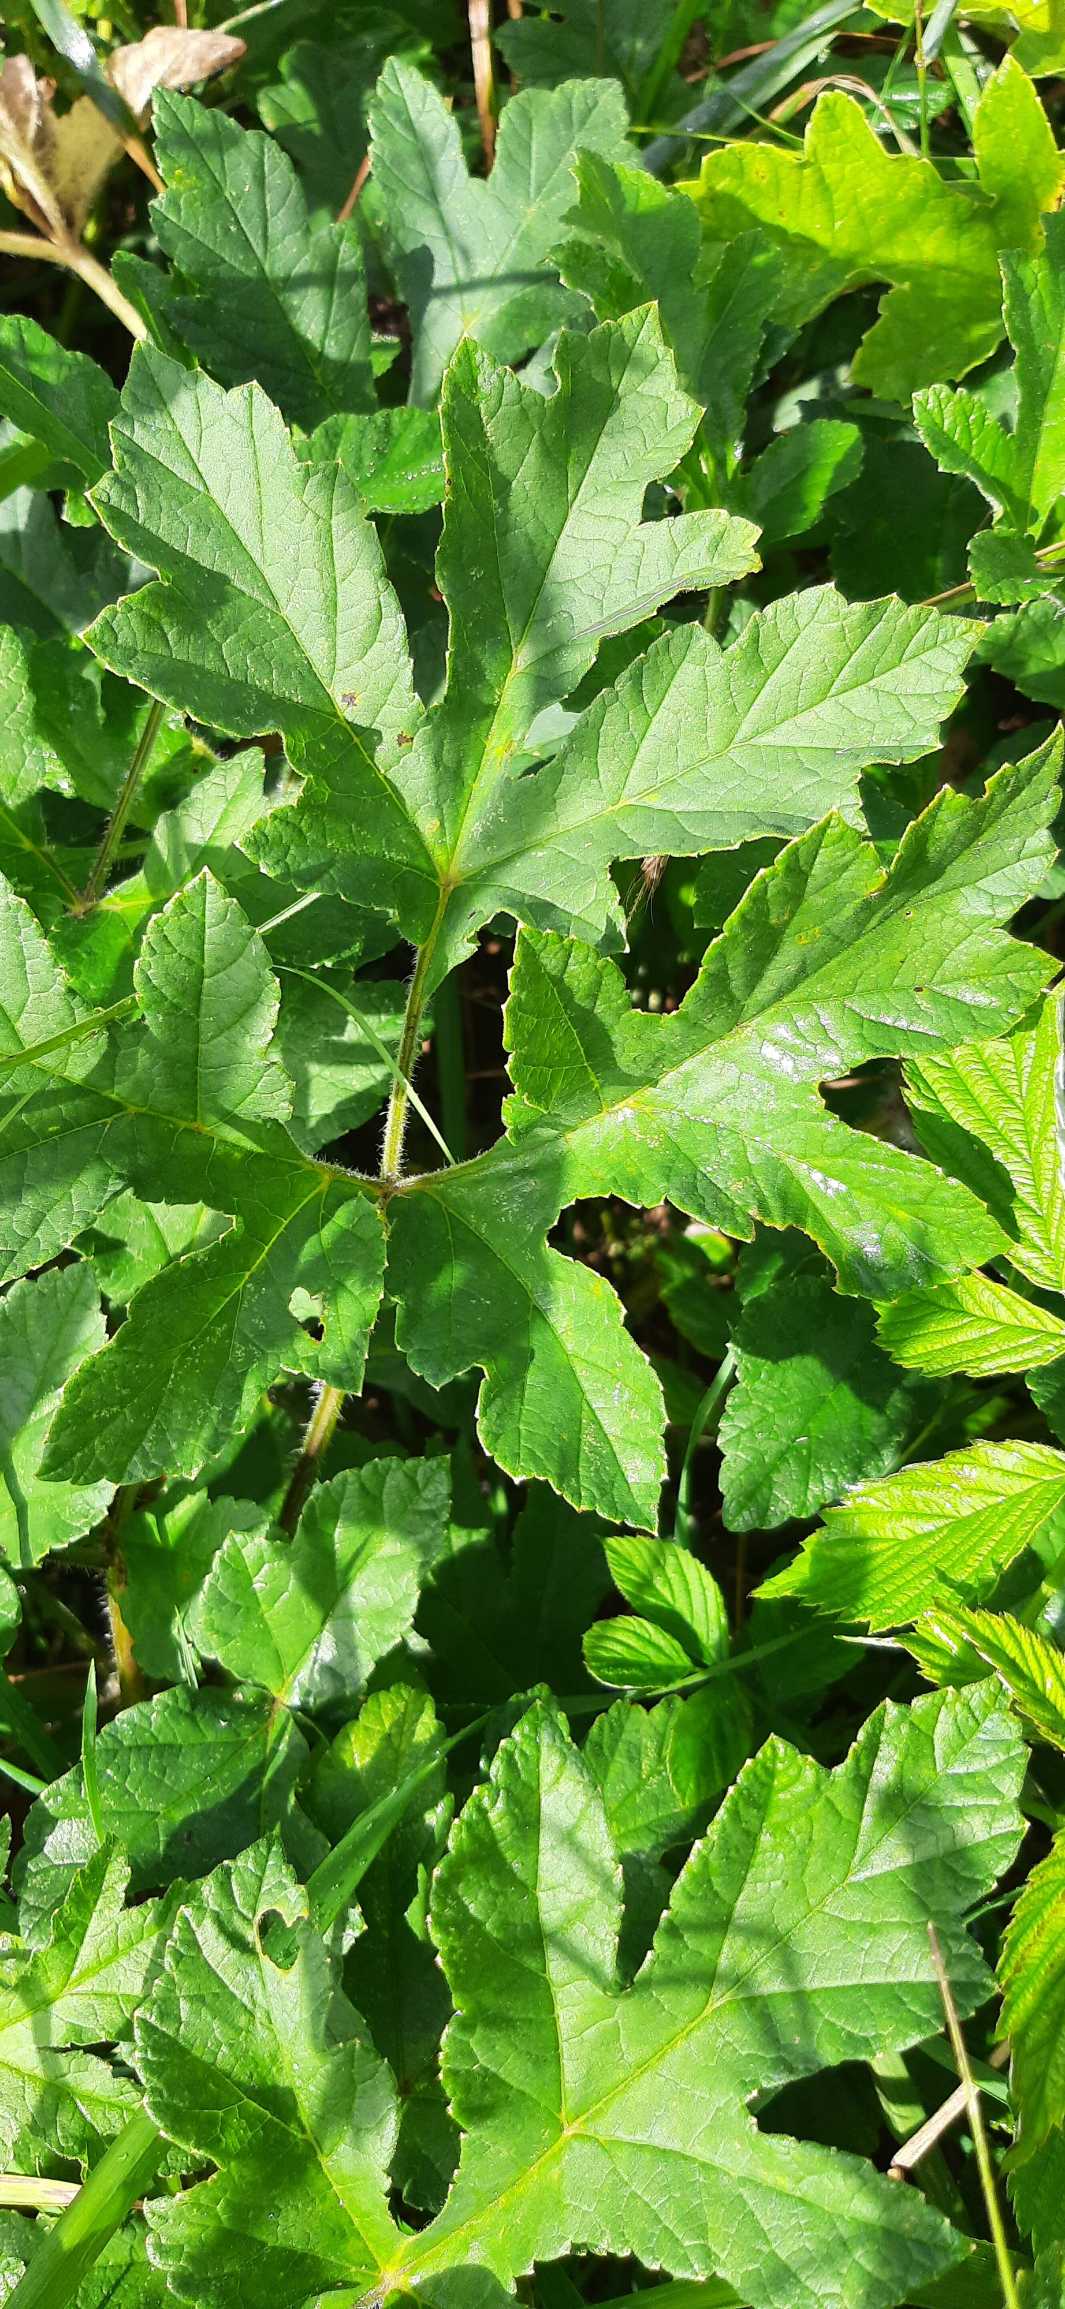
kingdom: Plantae
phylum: Tracheophyta
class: Magnoliopsida
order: Apiales
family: Apiaceae
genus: Heracleum
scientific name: Heracleum sphondylium
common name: Almindelig bjørneklo
